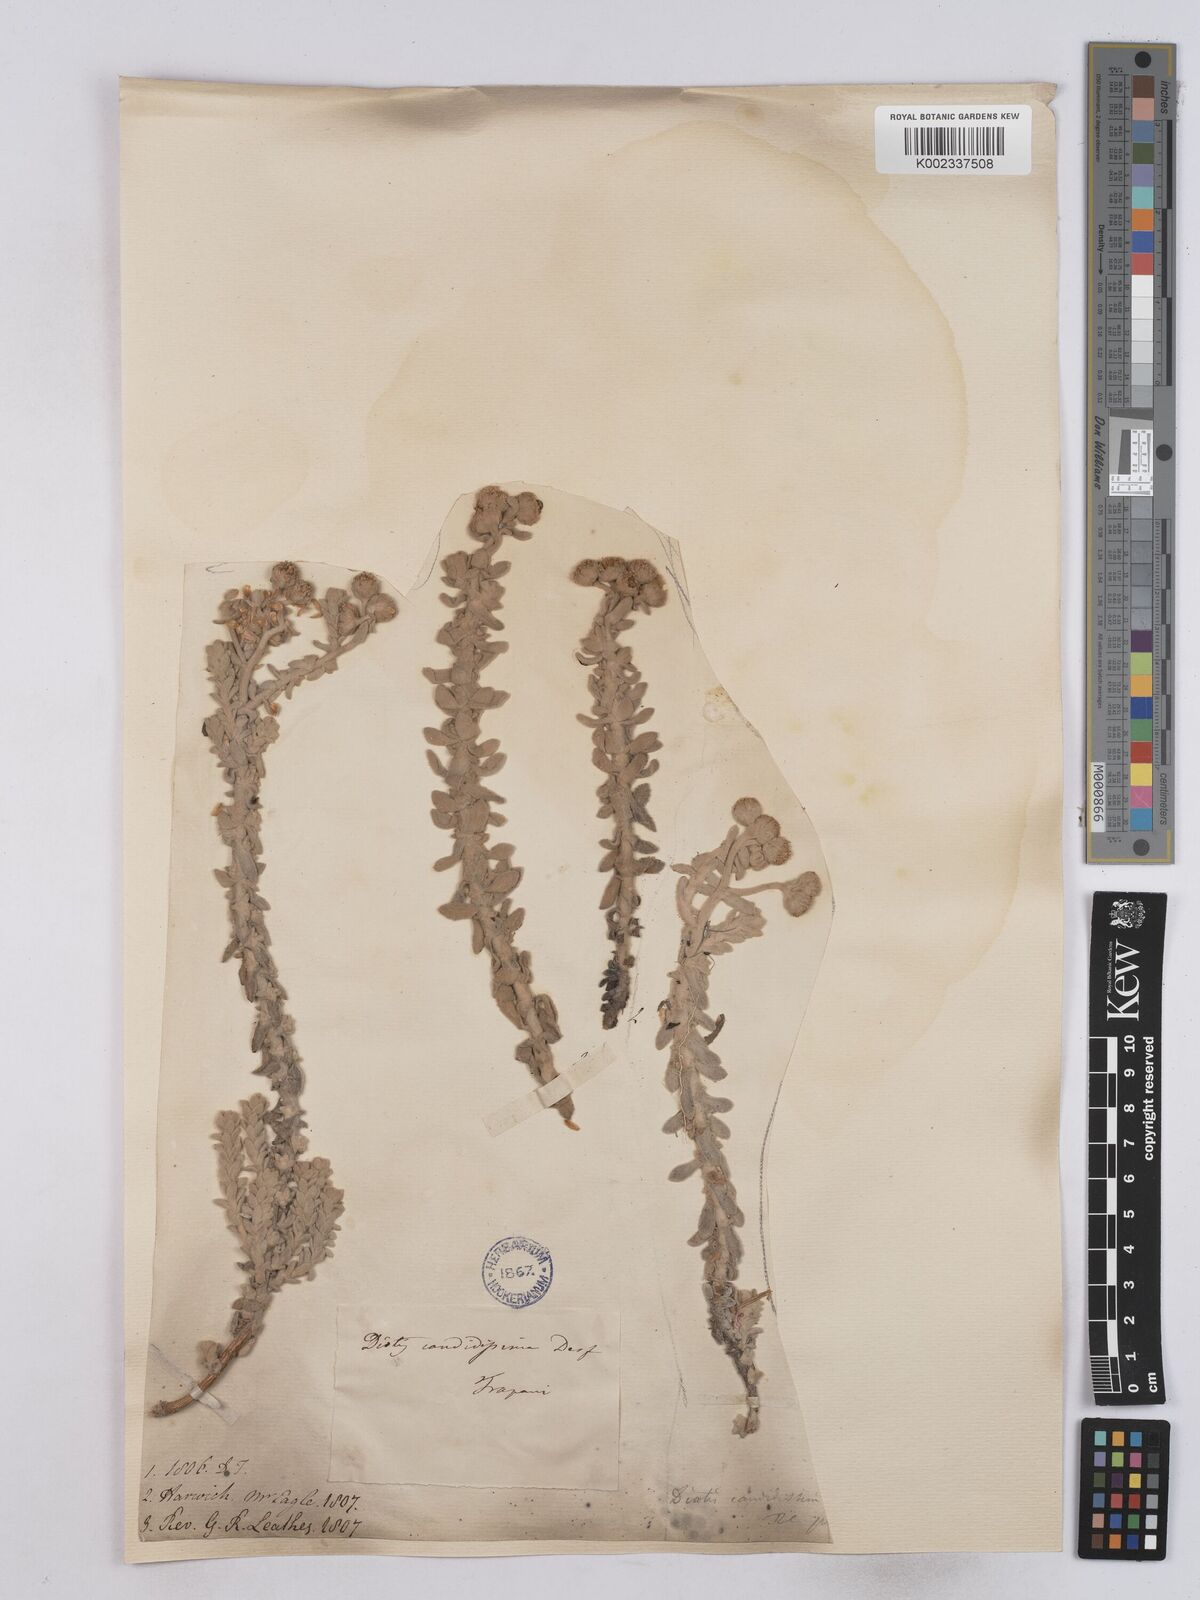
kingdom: Plantae
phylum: Tracheophyta
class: Magnoliopsida
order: Asterales
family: Asteraceae
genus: Achillea
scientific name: Achillea maritima
